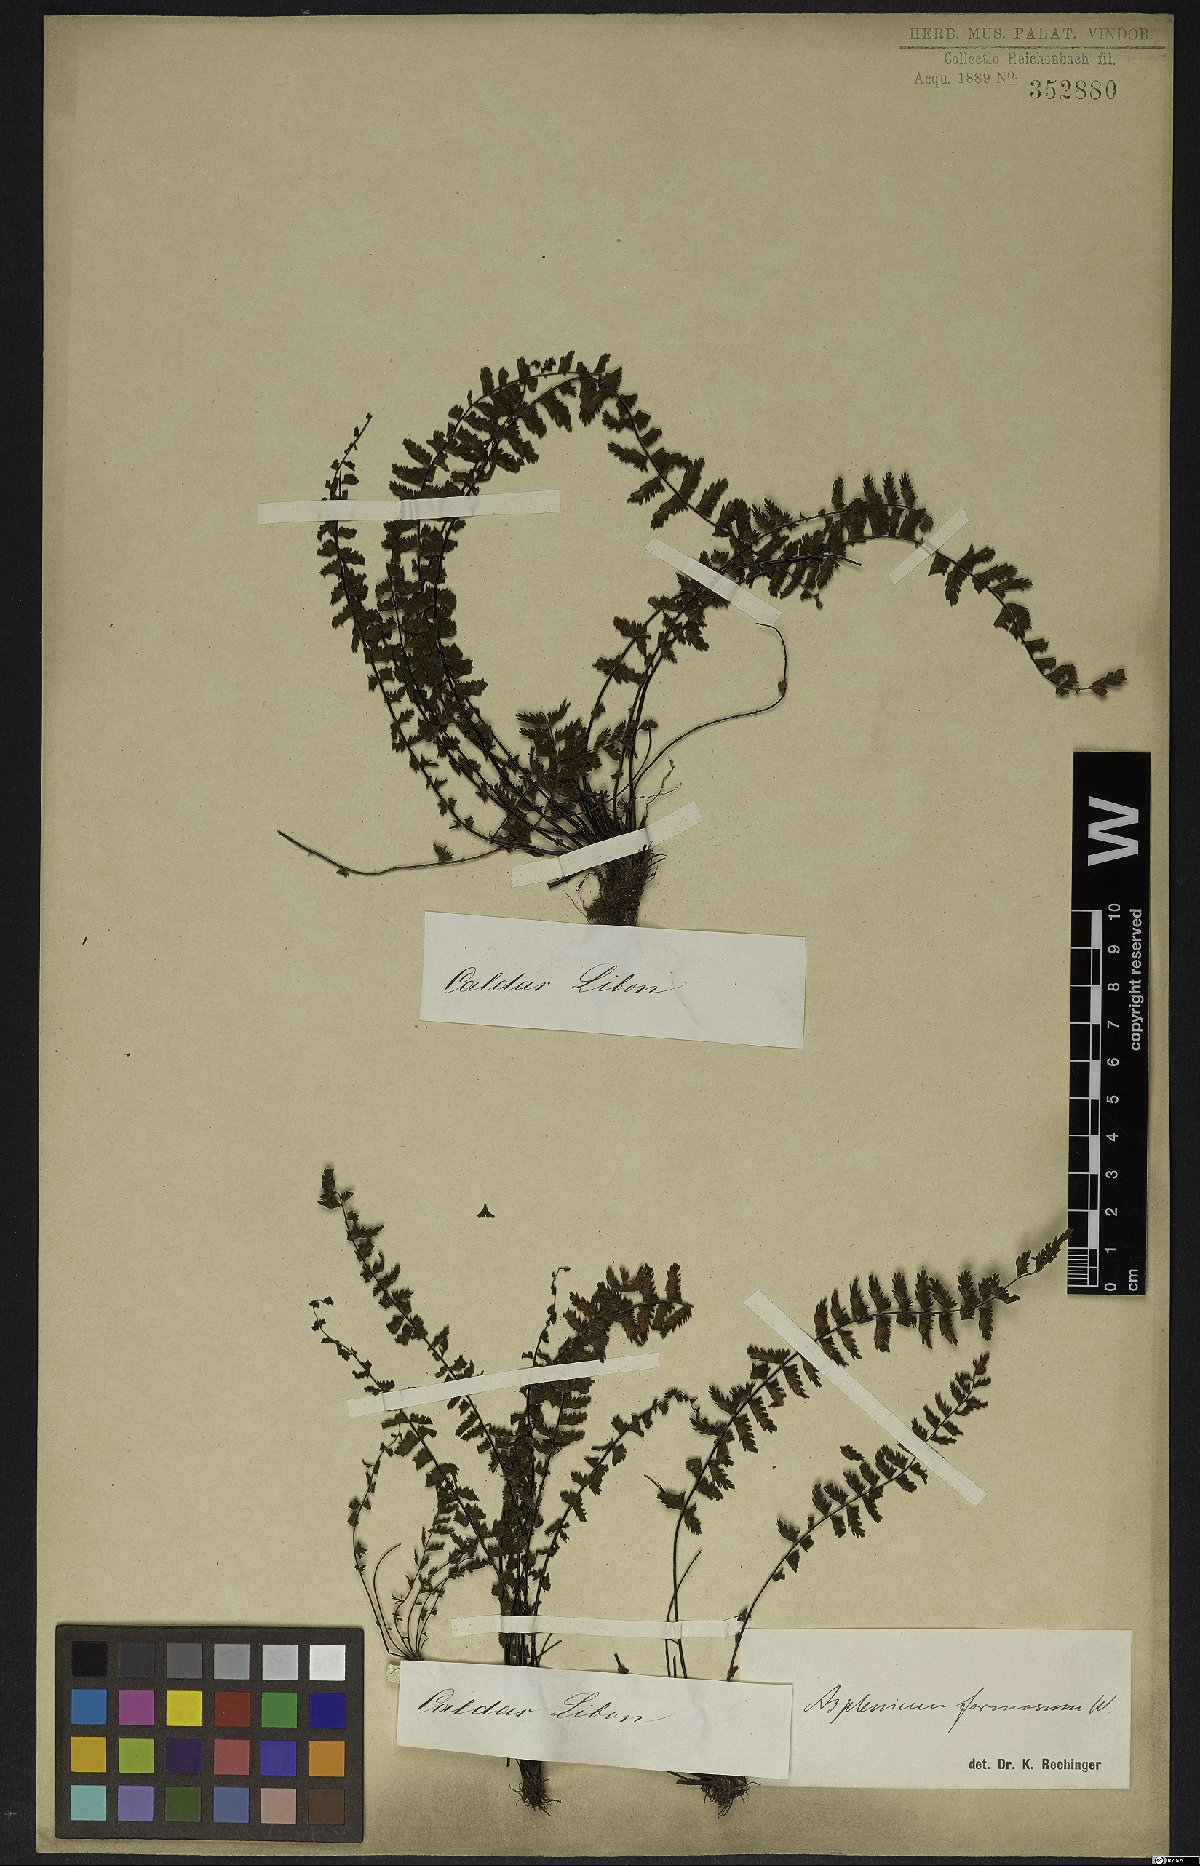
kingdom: Plantae
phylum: Tracheophyta
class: Polypodiopsida
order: Polypodiales
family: Aspleniaceae
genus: Asplenium
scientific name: Asplenium formosum
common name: Showy spleenwort
